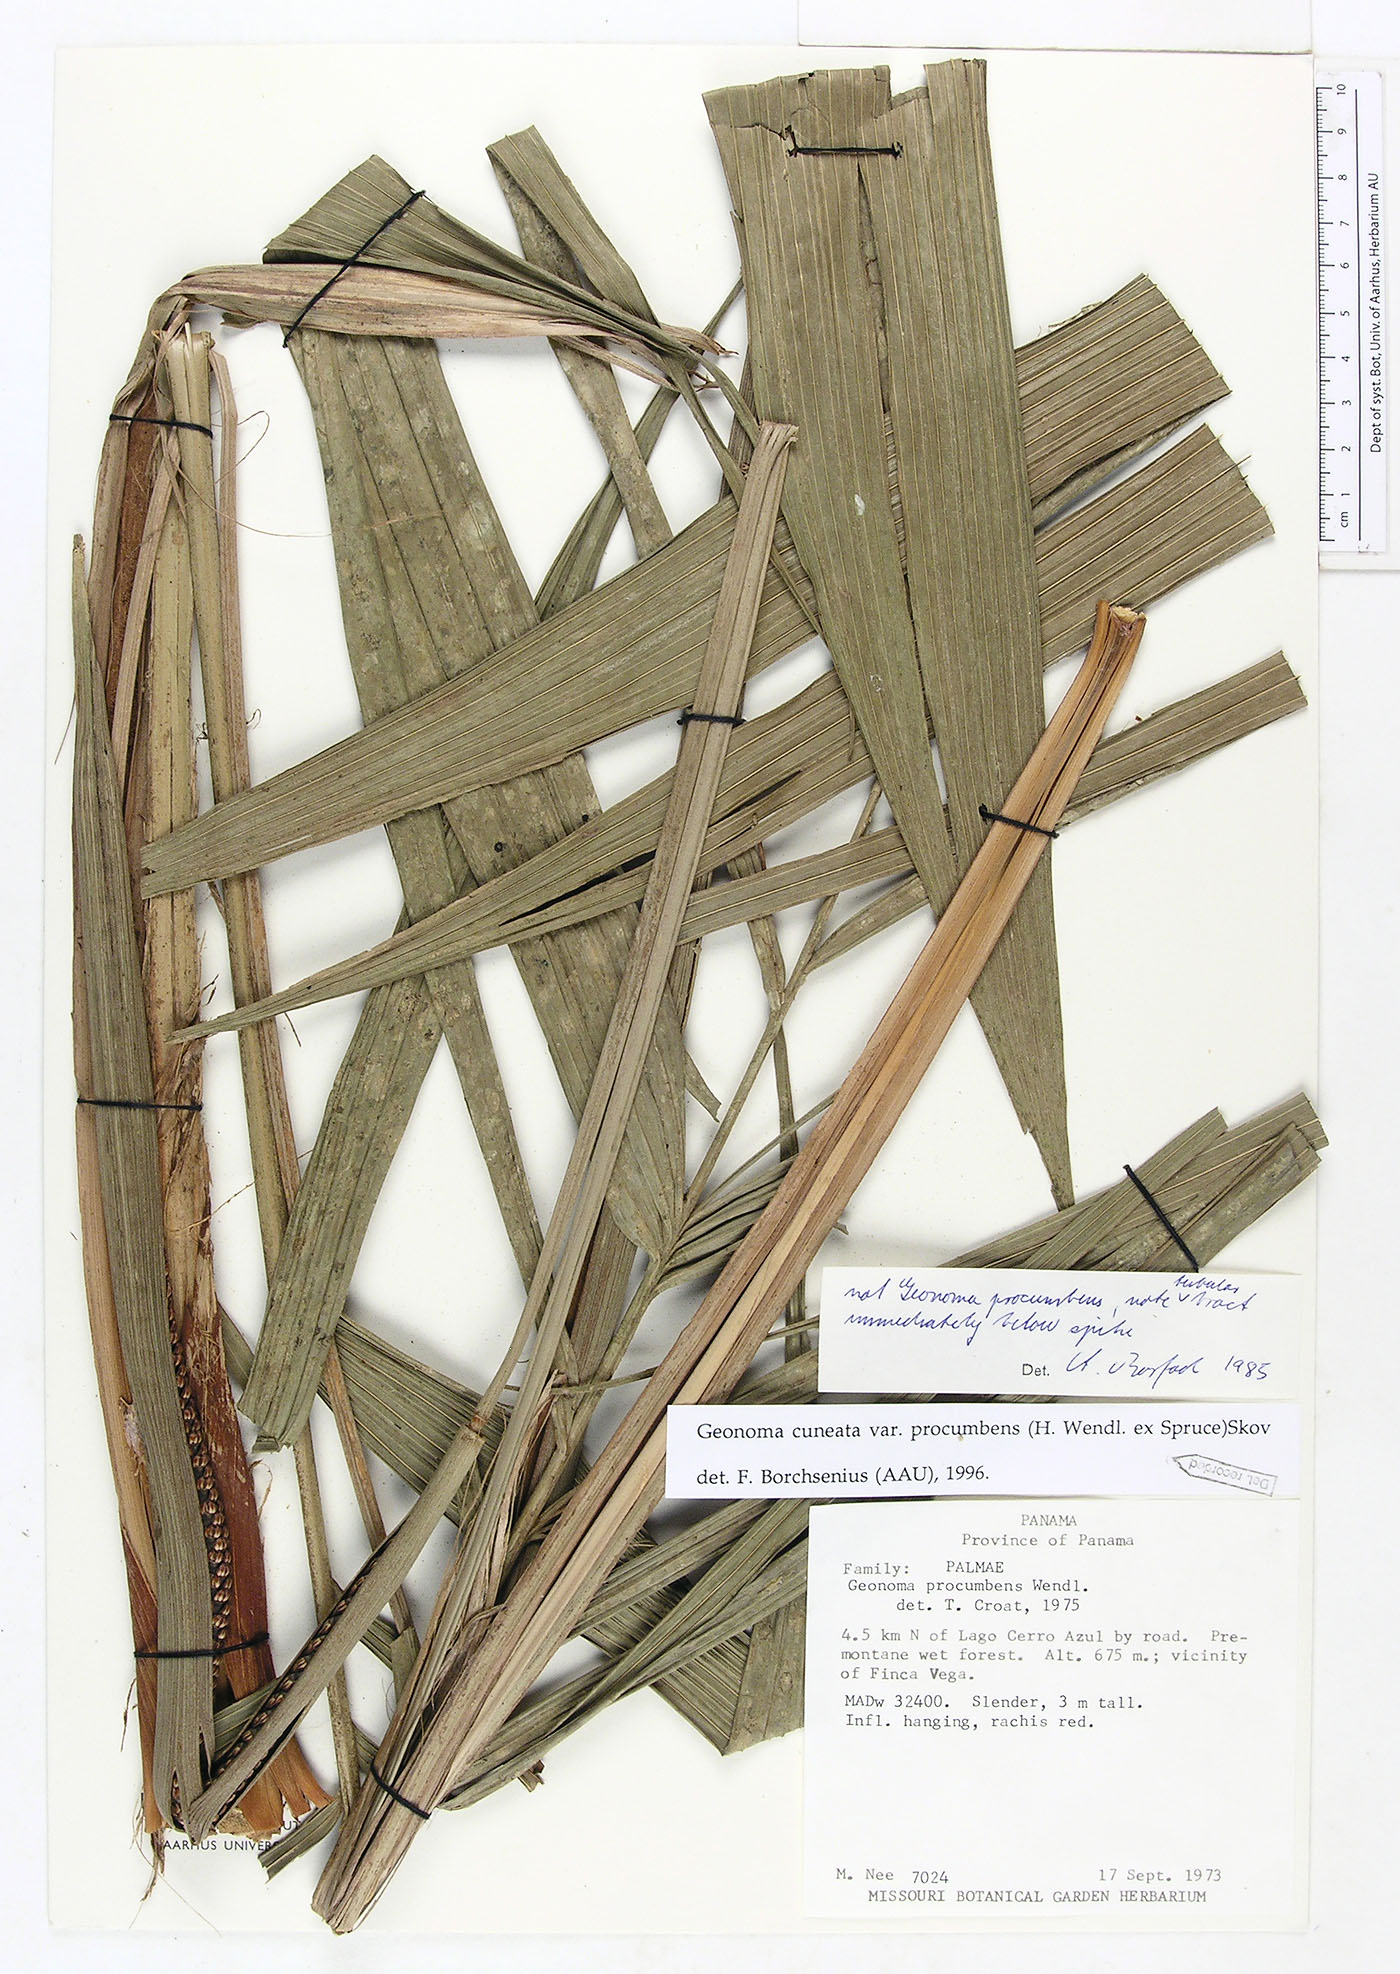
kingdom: Plantae
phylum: Tracheophyta
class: Liliopsida
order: Arecales
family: Arecaceae
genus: Geonoma
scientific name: Geonoma cuneata
